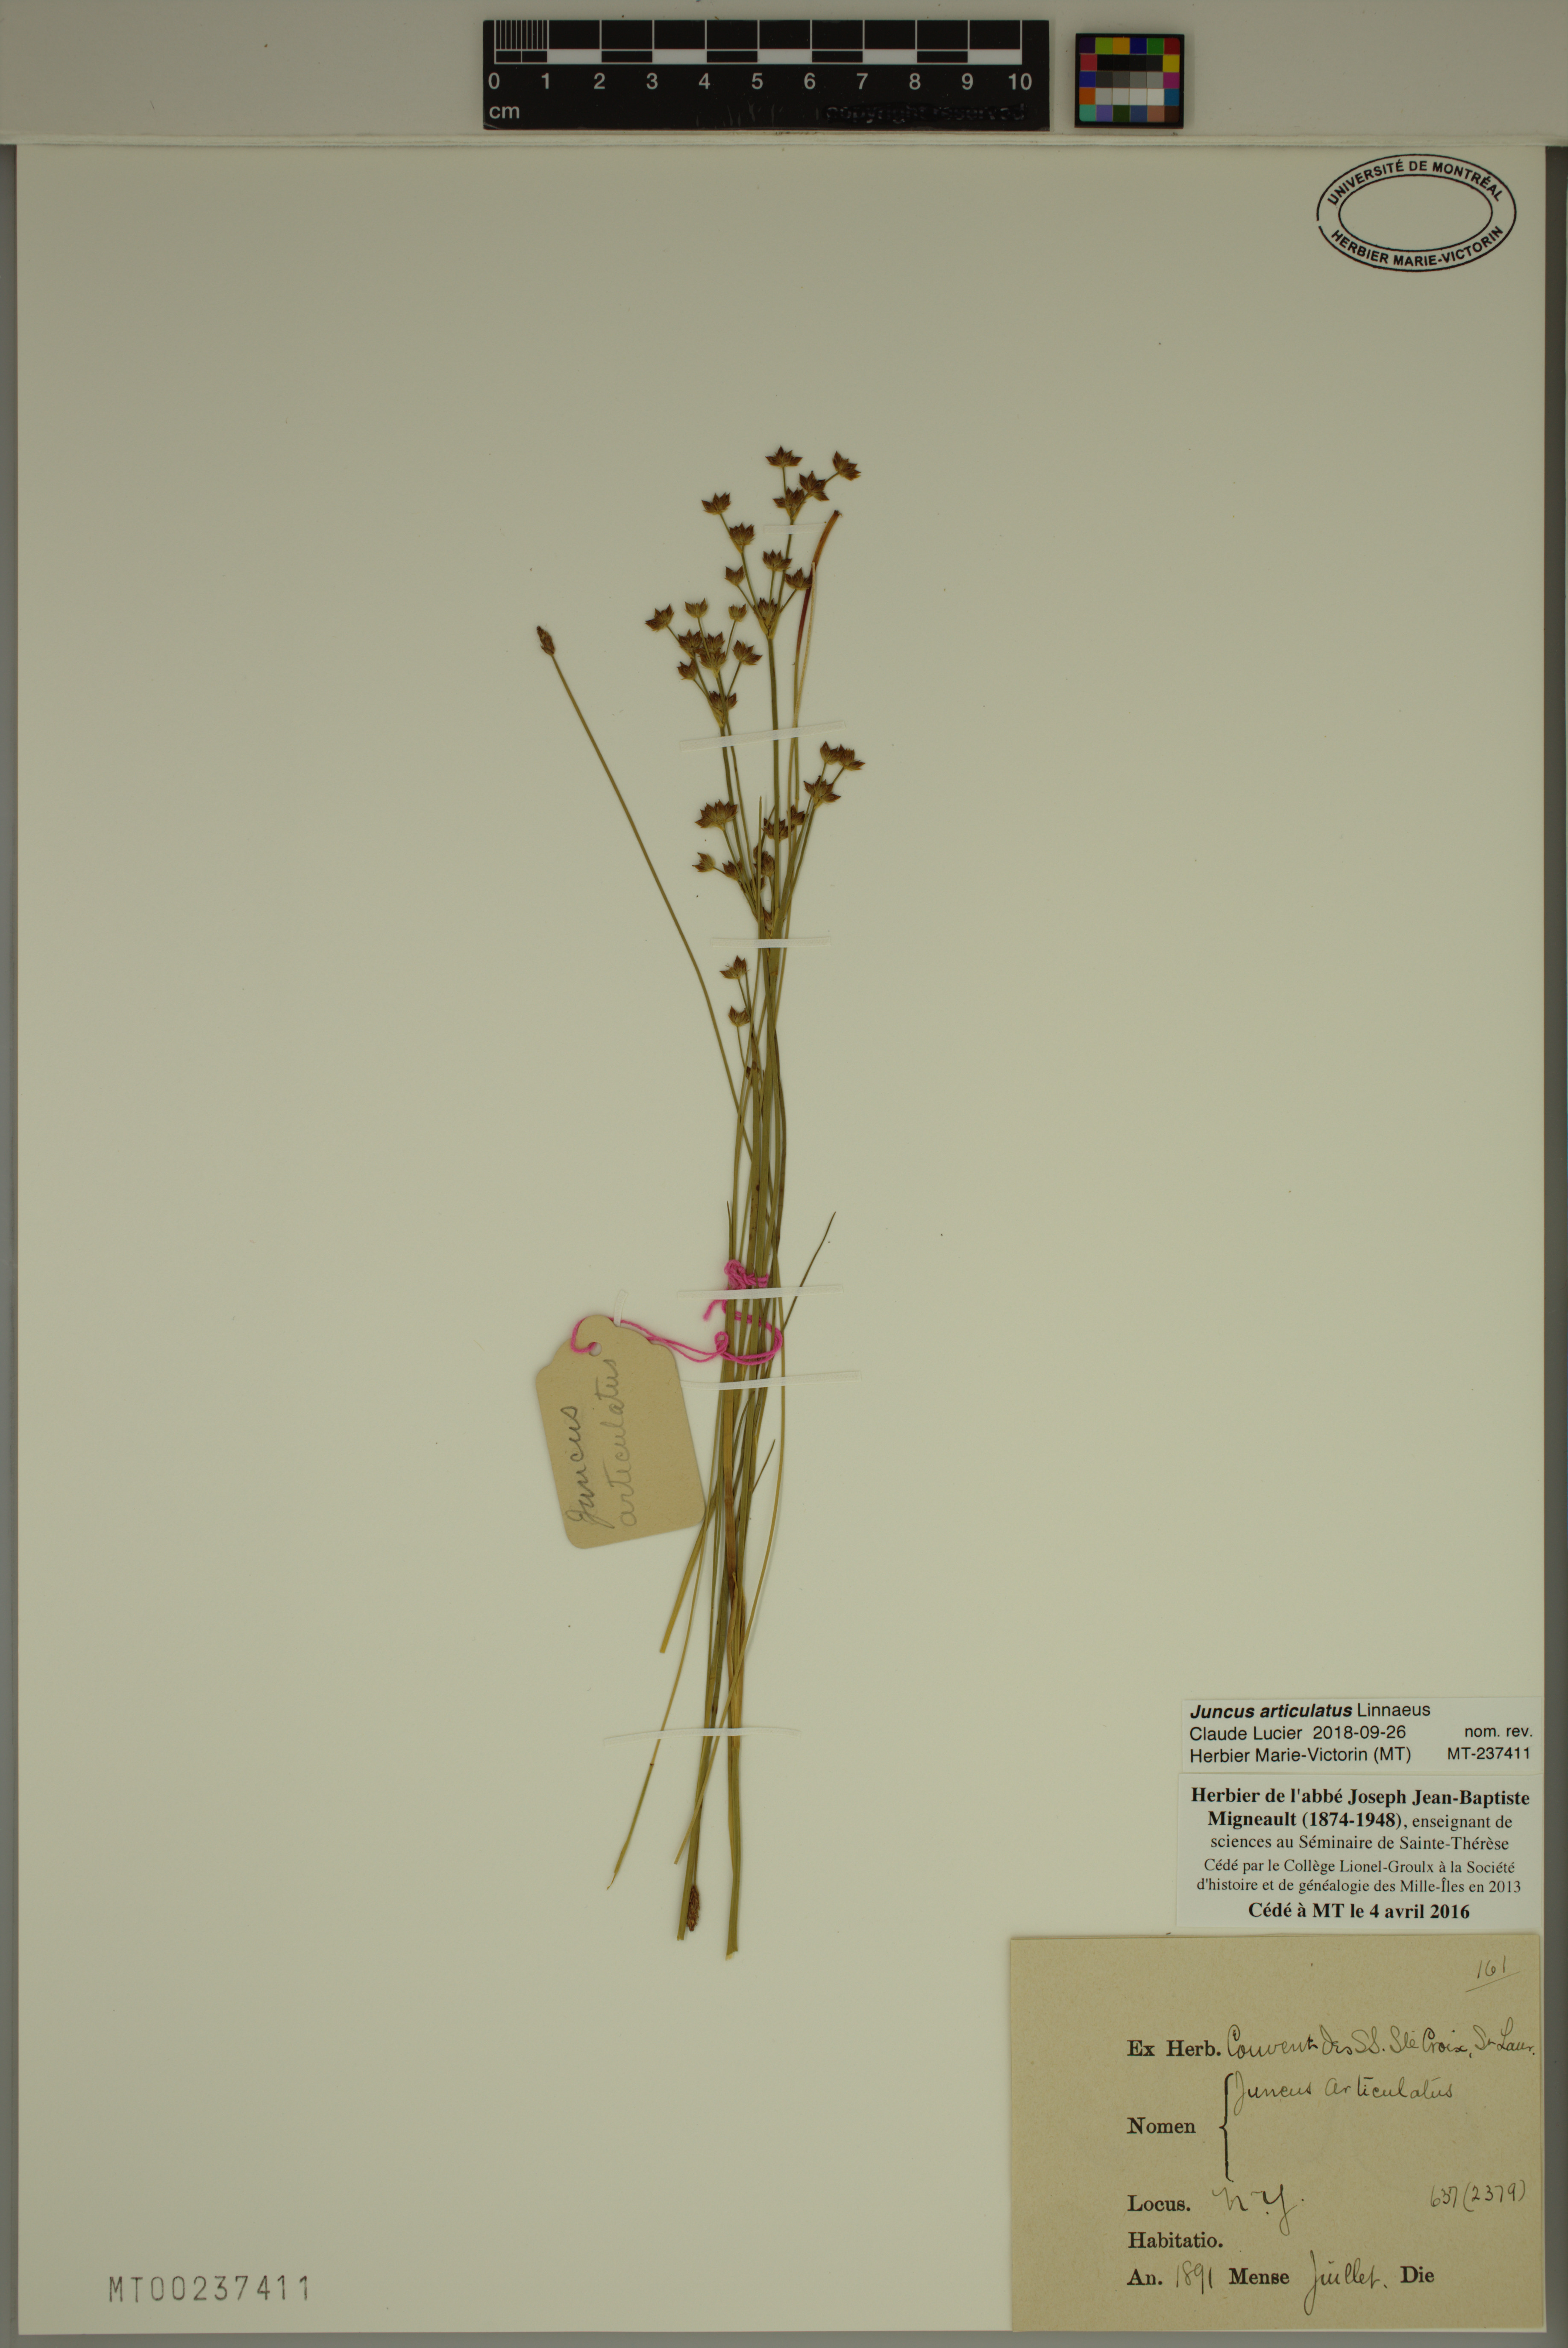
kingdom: Plantae
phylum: Tracheophyta
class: Liliopsida
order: Poales
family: Juncaceae
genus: Juncus
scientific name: Juncus articulatus
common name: Jointed rush
